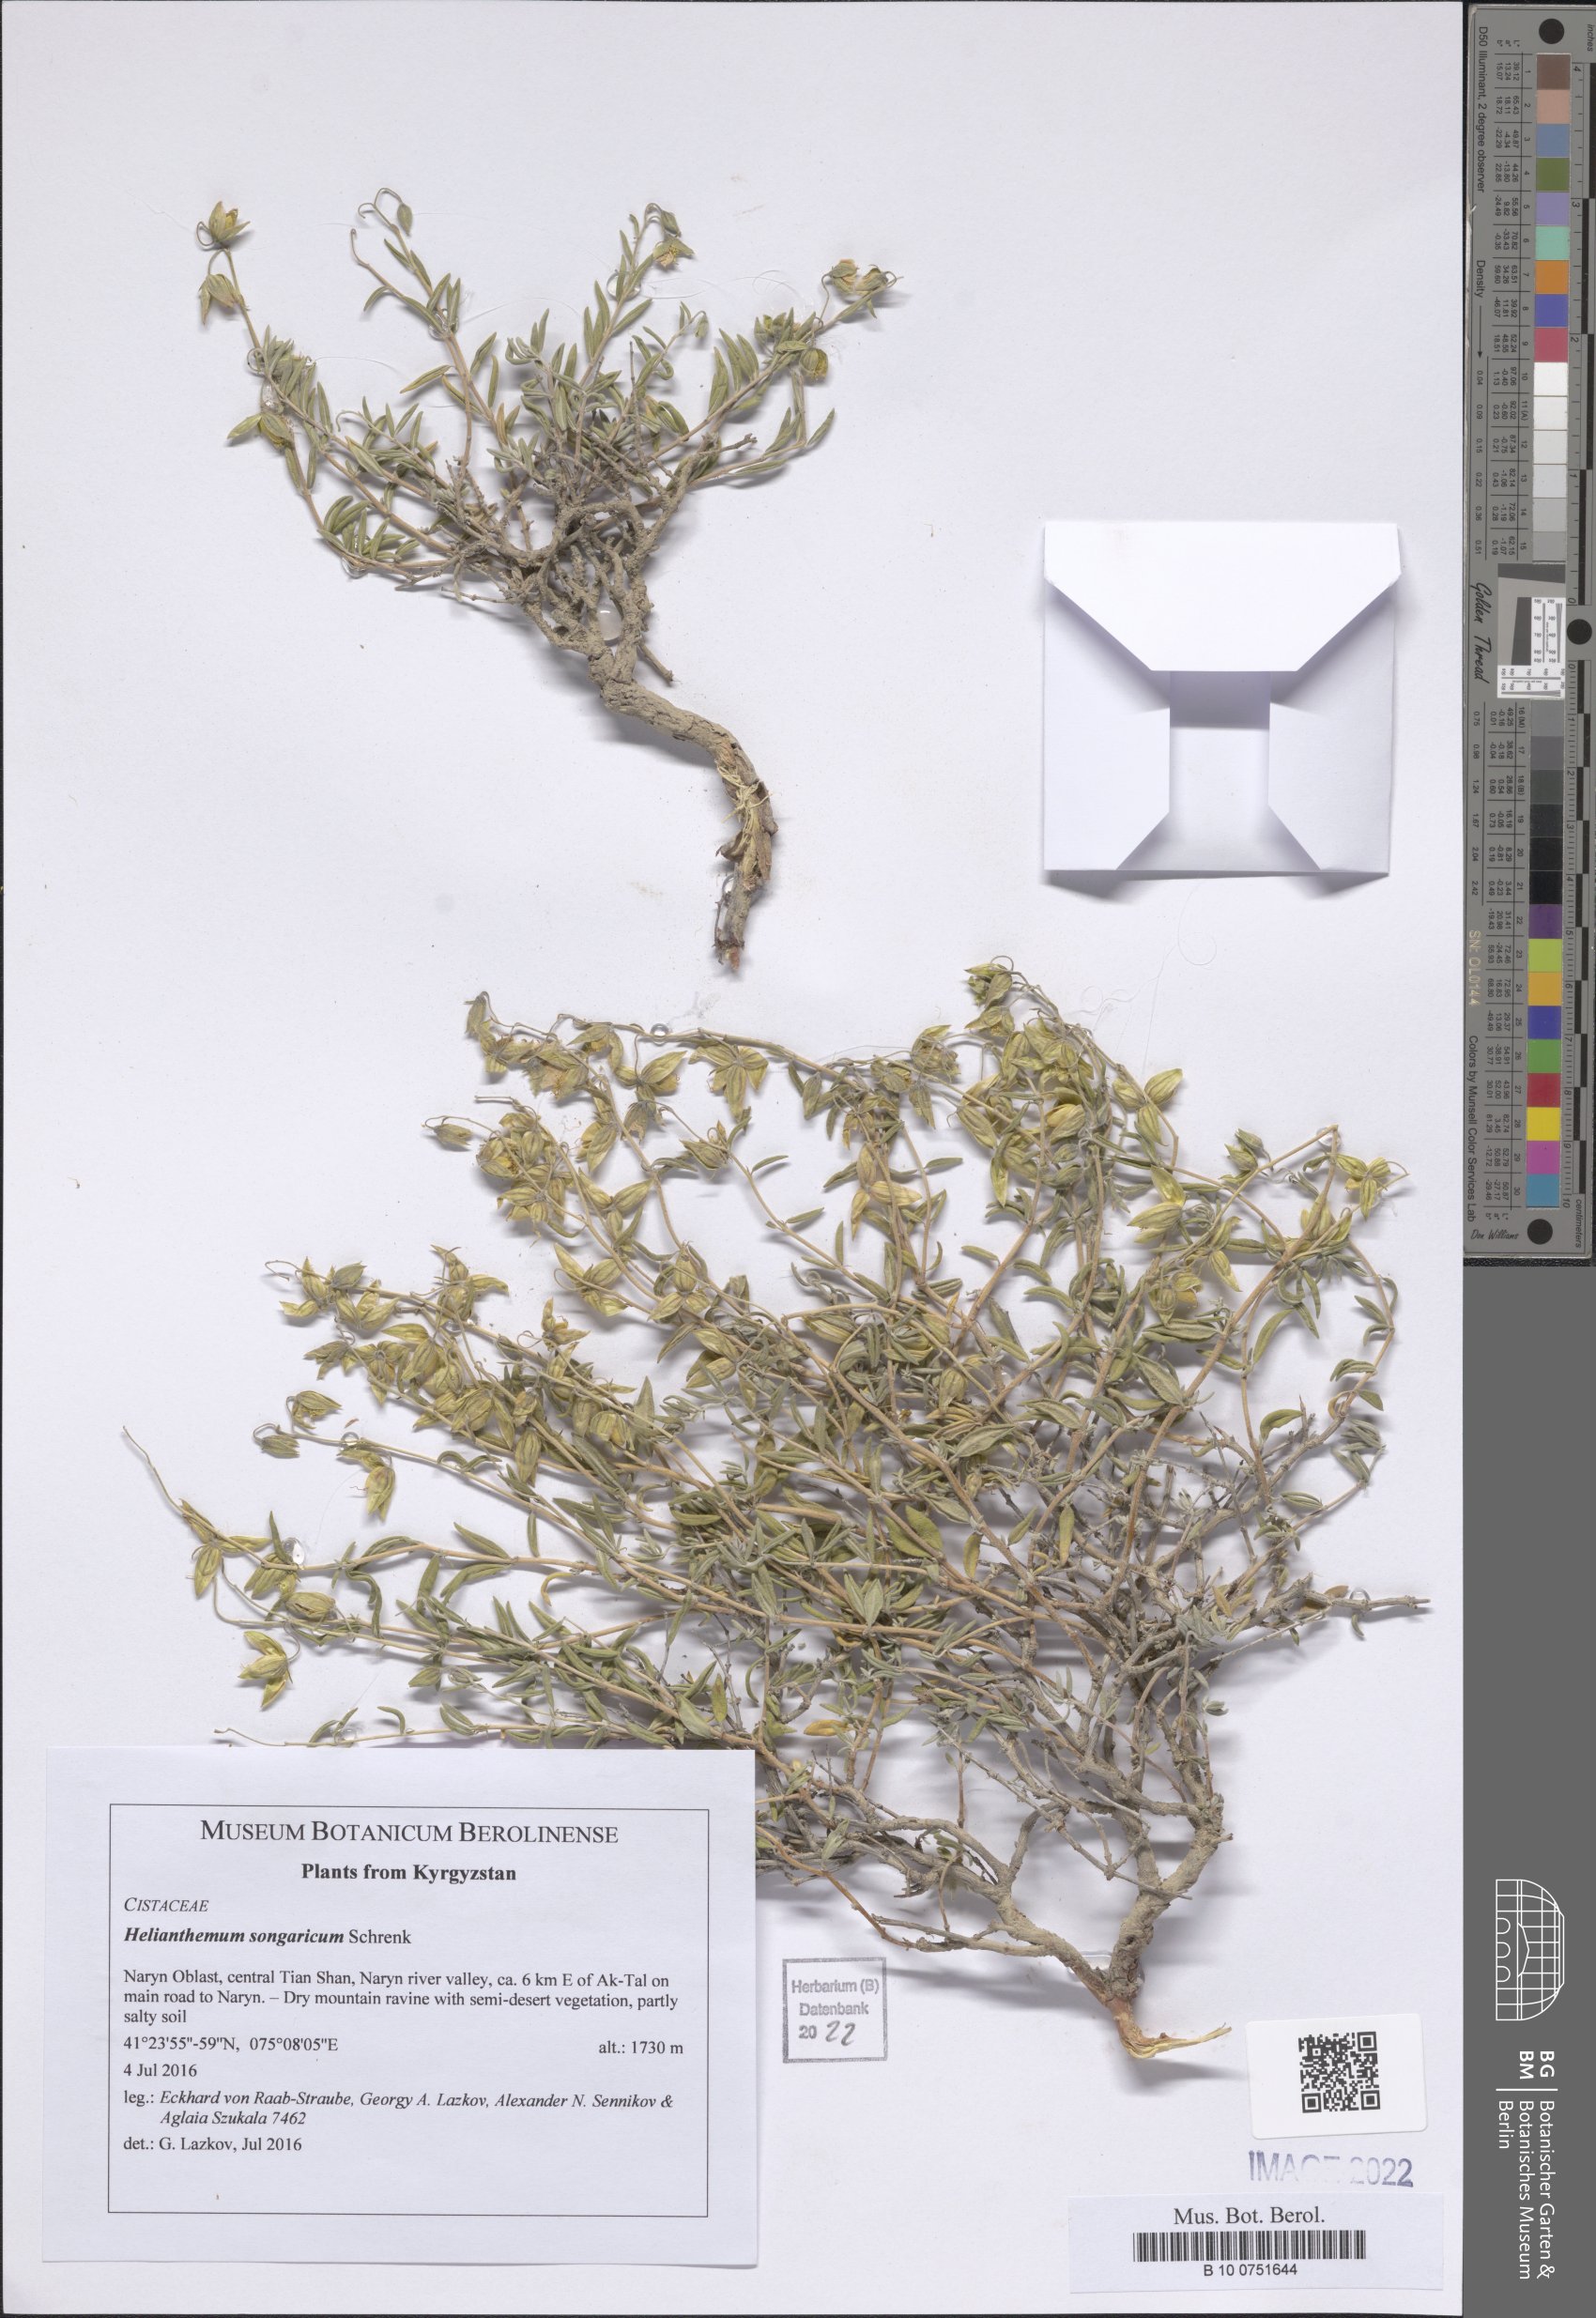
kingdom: Plantae
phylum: Tracheophyta
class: Magnoliopsida
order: Malvales
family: Cistaceae
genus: Helianthemum
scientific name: Helianthemum songaricum
